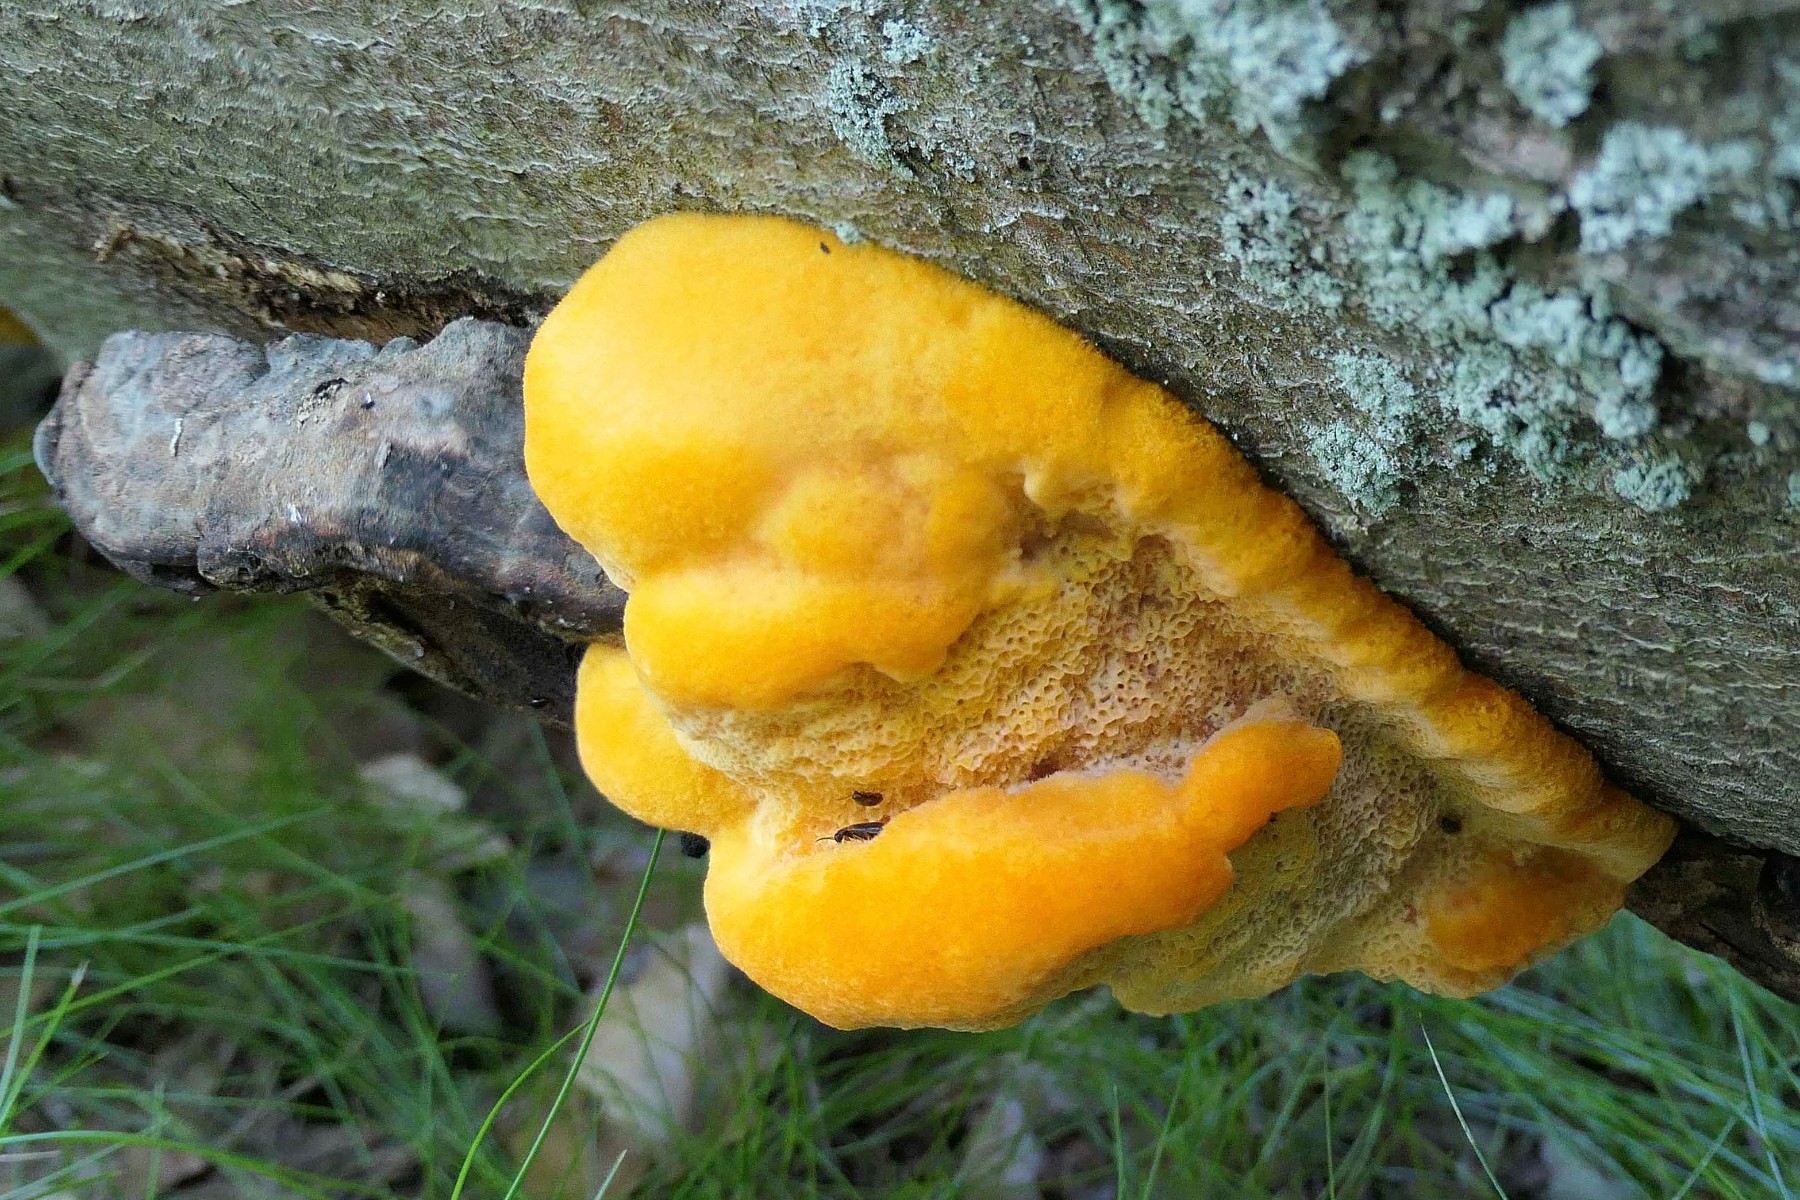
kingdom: Fungi
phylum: Basidiomycota
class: Agaricomycetes
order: Polyporales
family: Pycnoporellaceae
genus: Pycnoporellus
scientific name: Pycnoporellus fulgens
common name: flammeporesvamp
